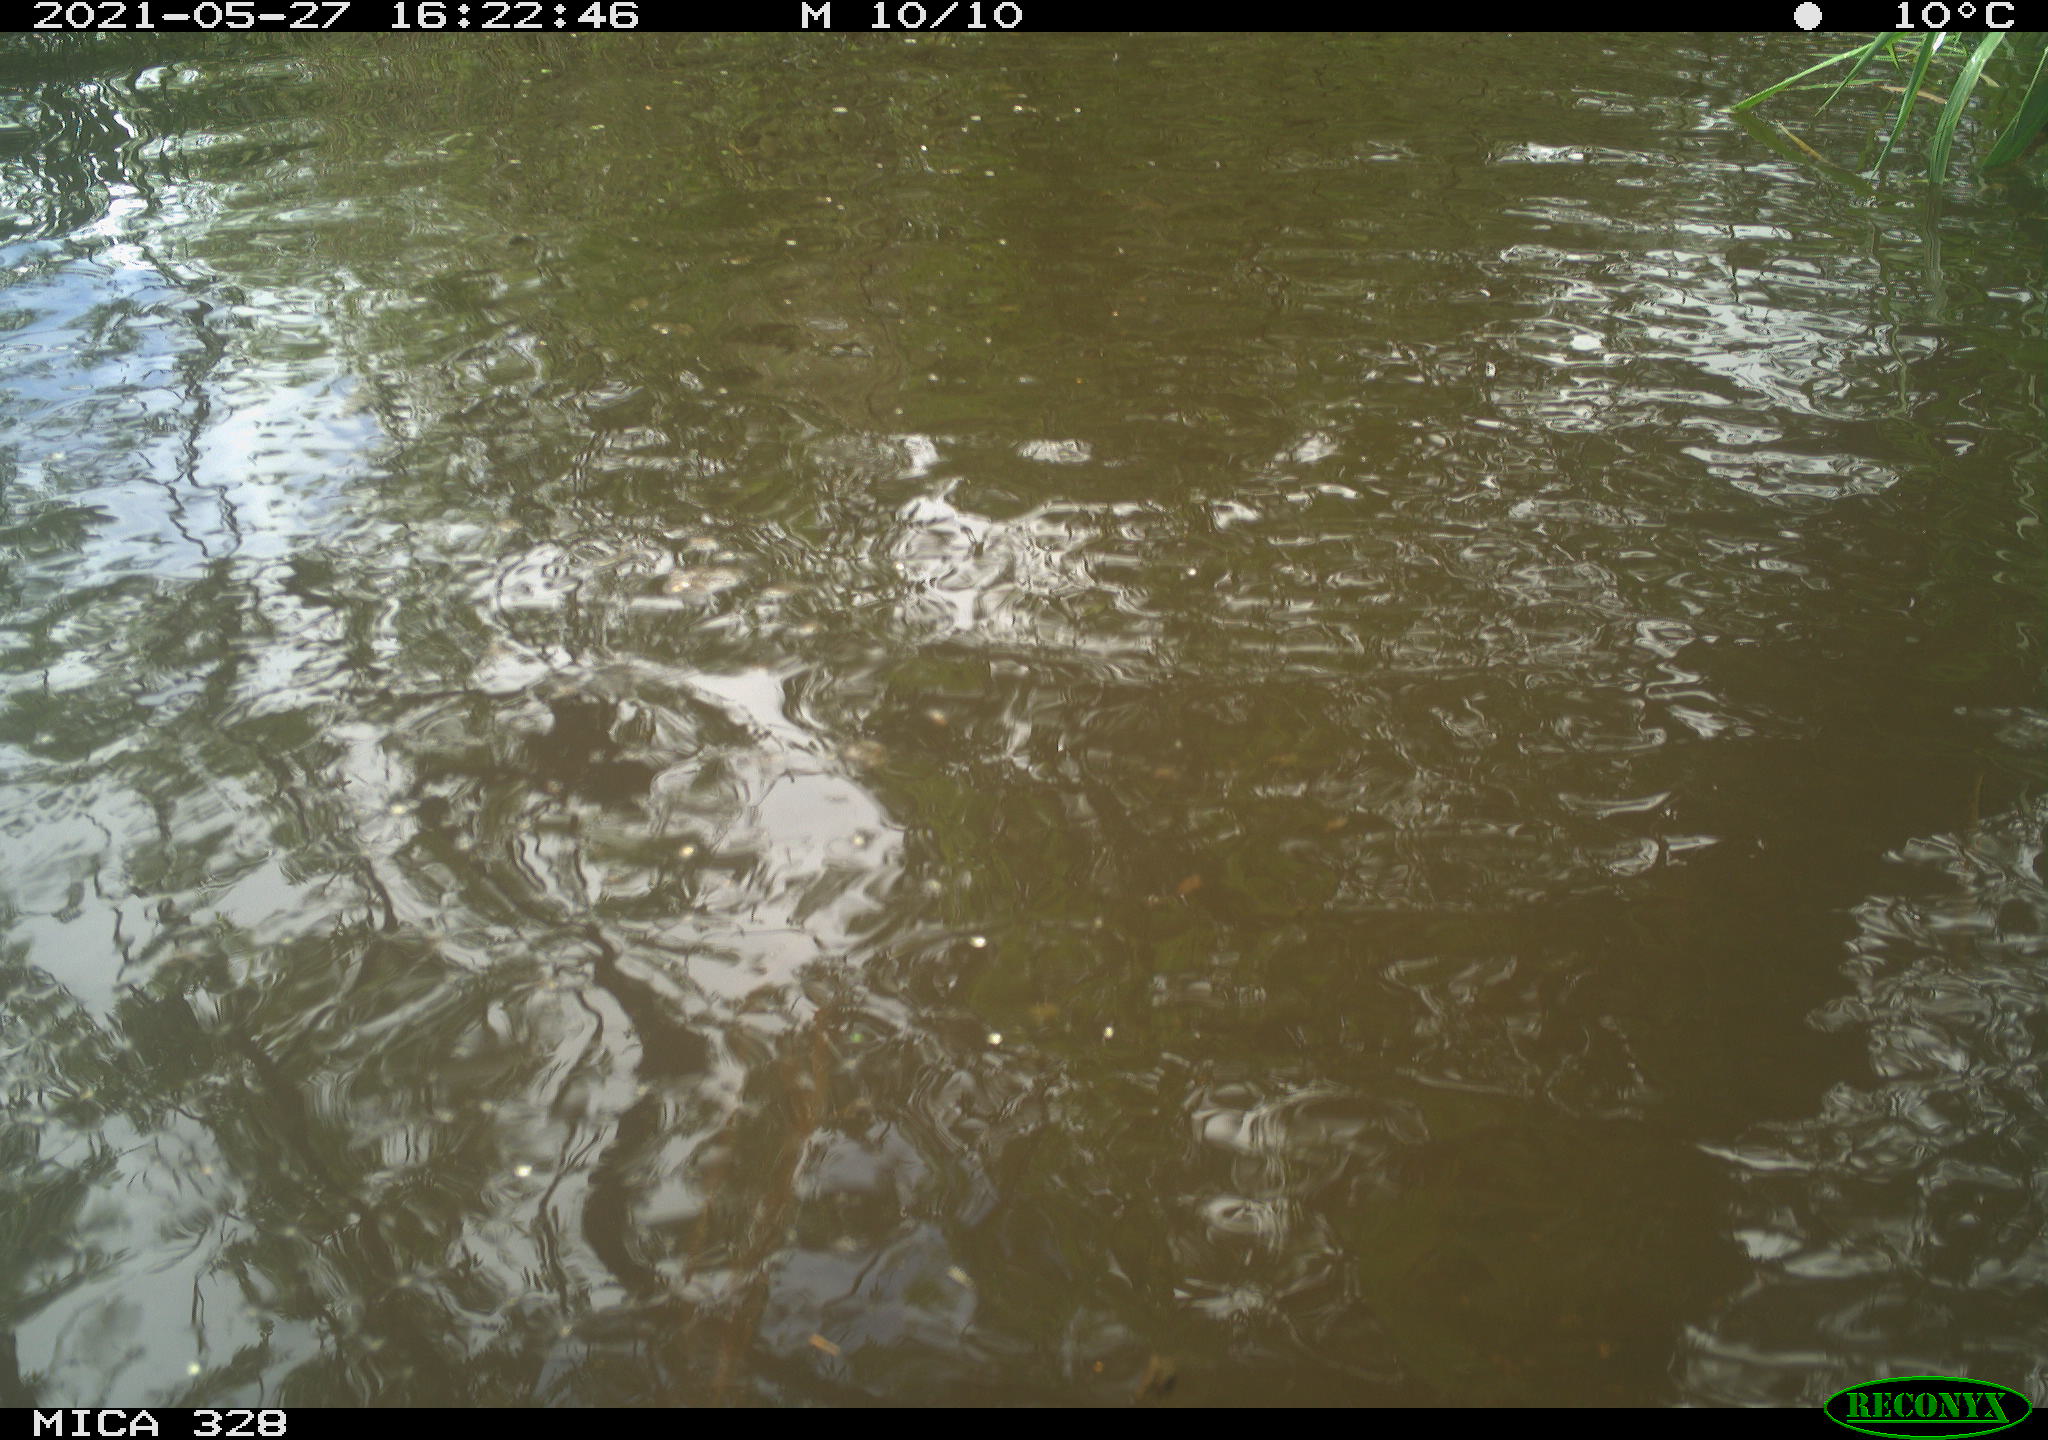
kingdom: Animalia
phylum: Chordata
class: Mammalia
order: Rodentia
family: Cricetidae
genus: Ondatra
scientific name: Ondatra zibethicus
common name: Muskrat
